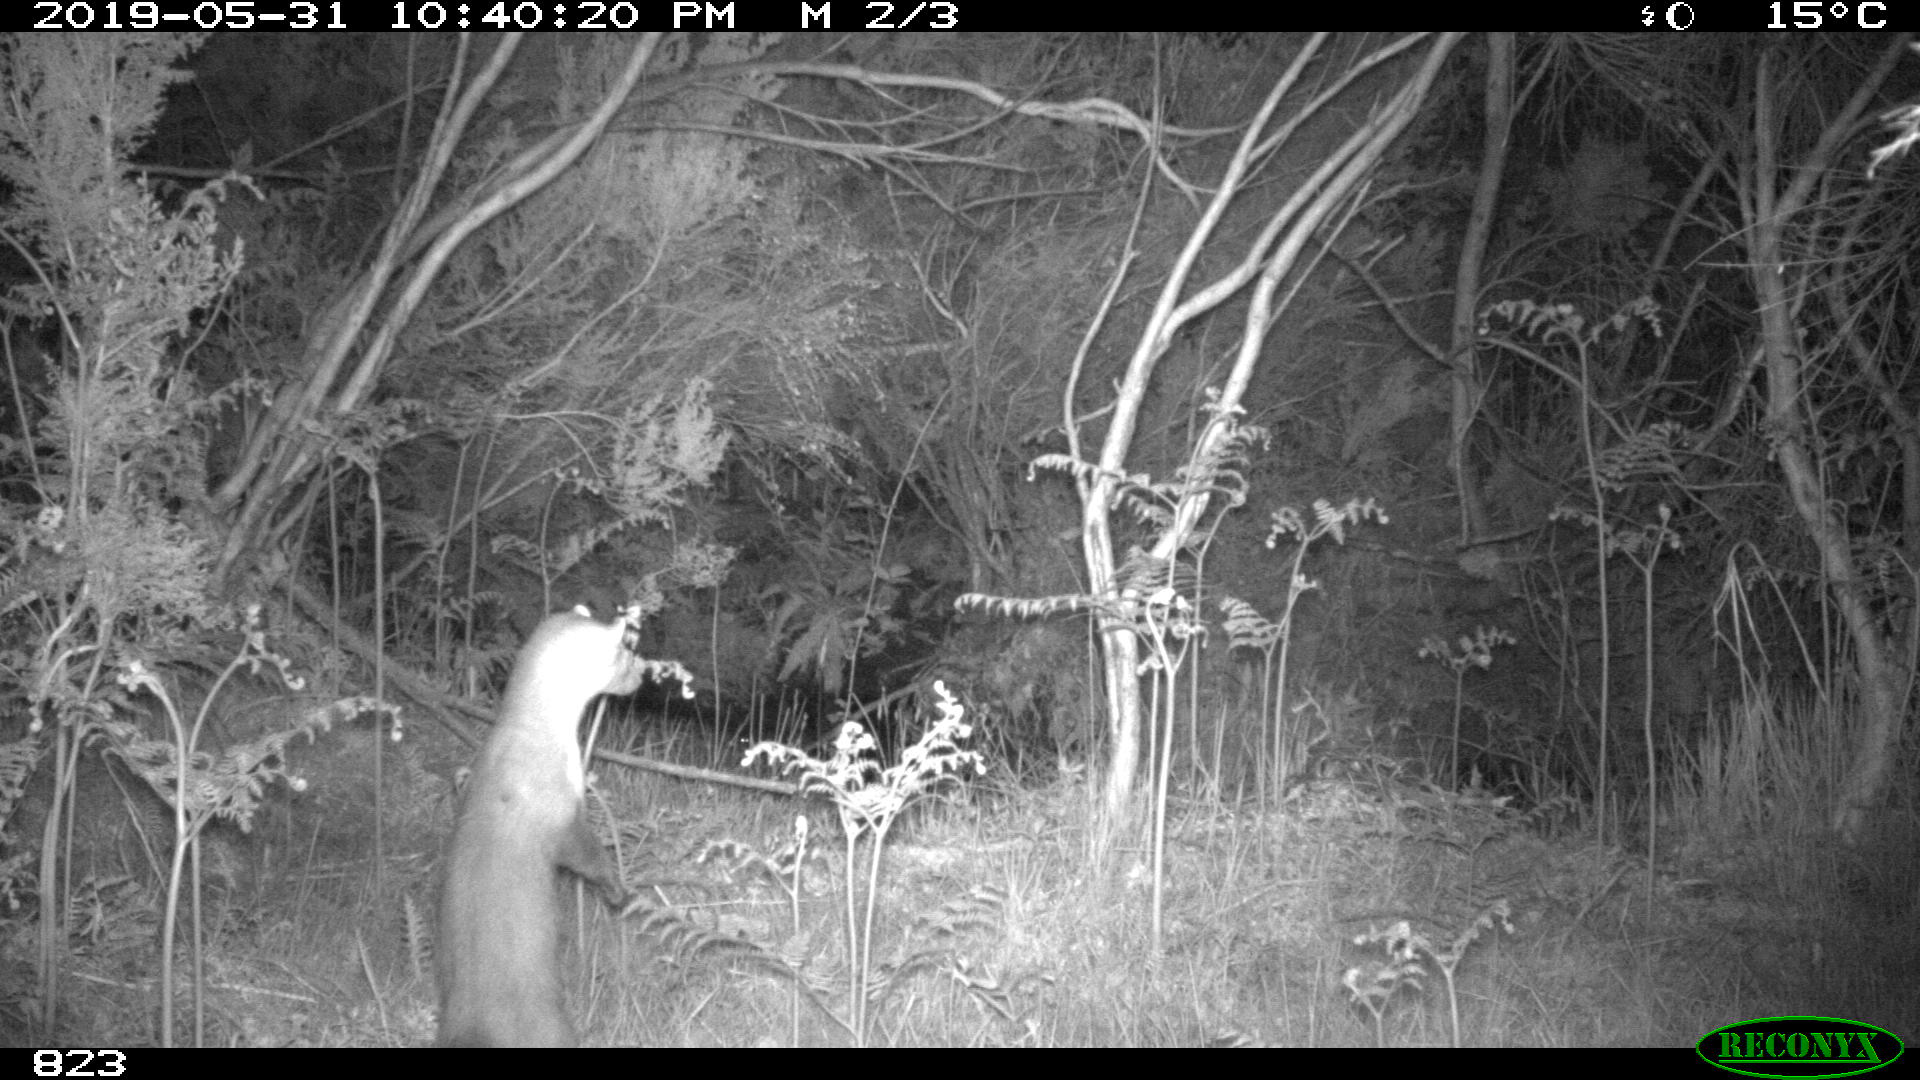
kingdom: Animalia
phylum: Chordata
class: Mammalia
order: Carnivora
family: Mustelidae
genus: Martes
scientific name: Martes foina
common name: Beech marten
